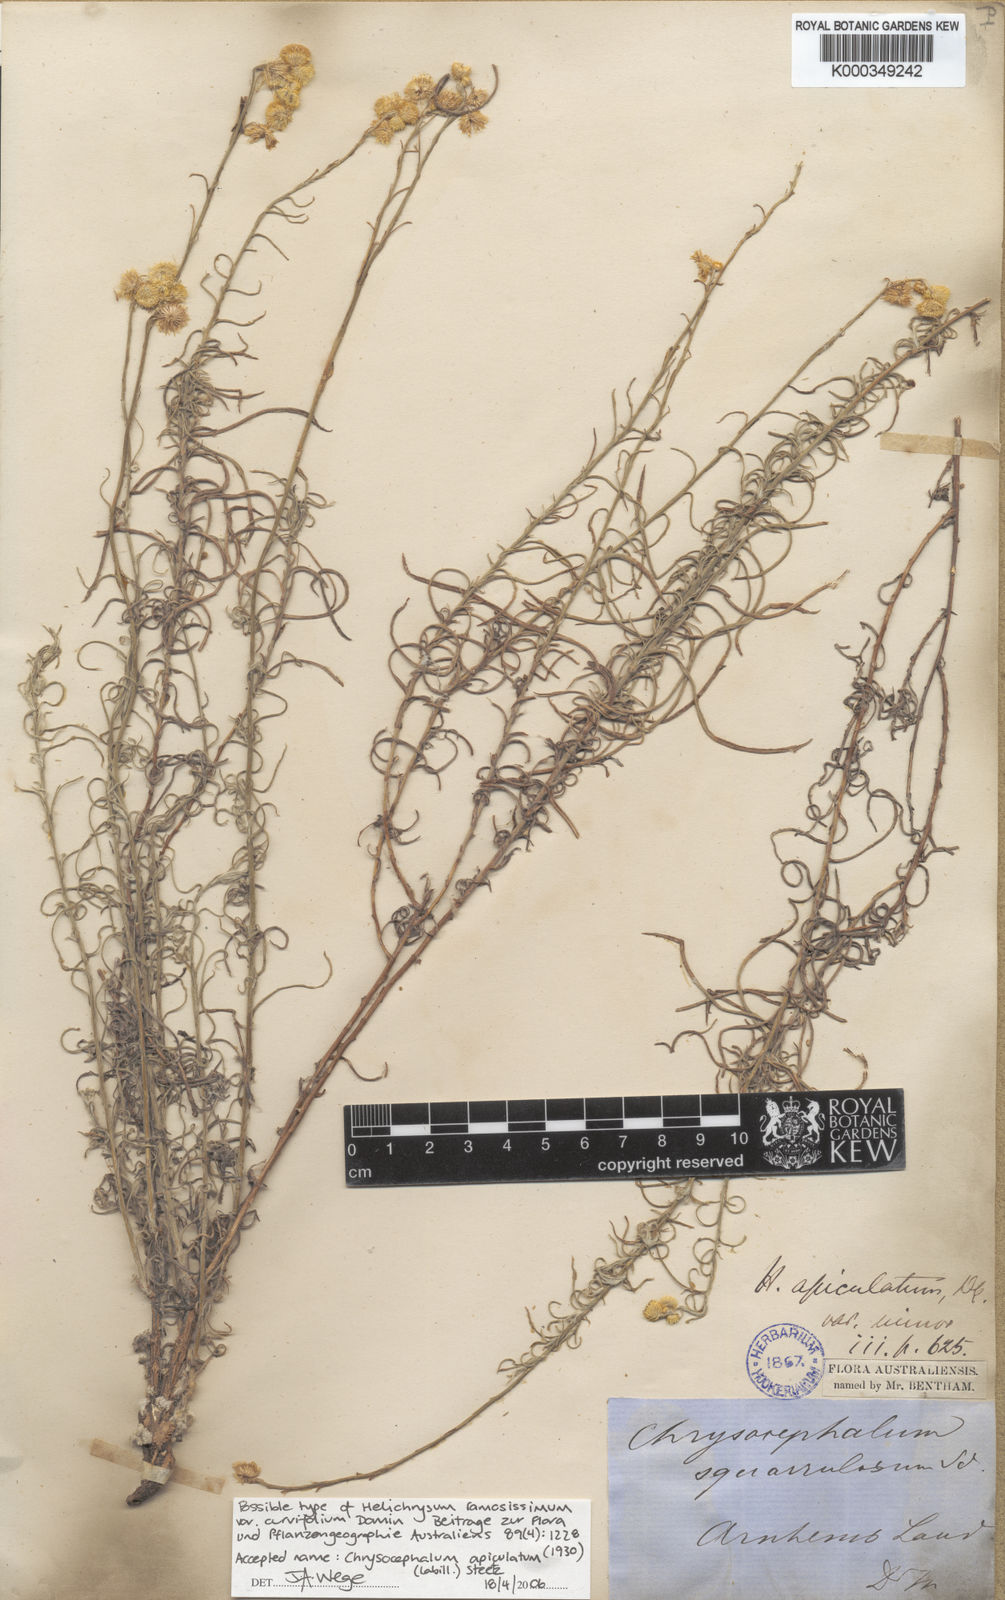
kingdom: Plantae
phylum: Tracheophyta
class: Magnoliopsida
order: Asterales
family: Asteraceae
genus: Chrysocephalum
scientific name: Chrysocephalum apiculatum
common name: Common everlasting
